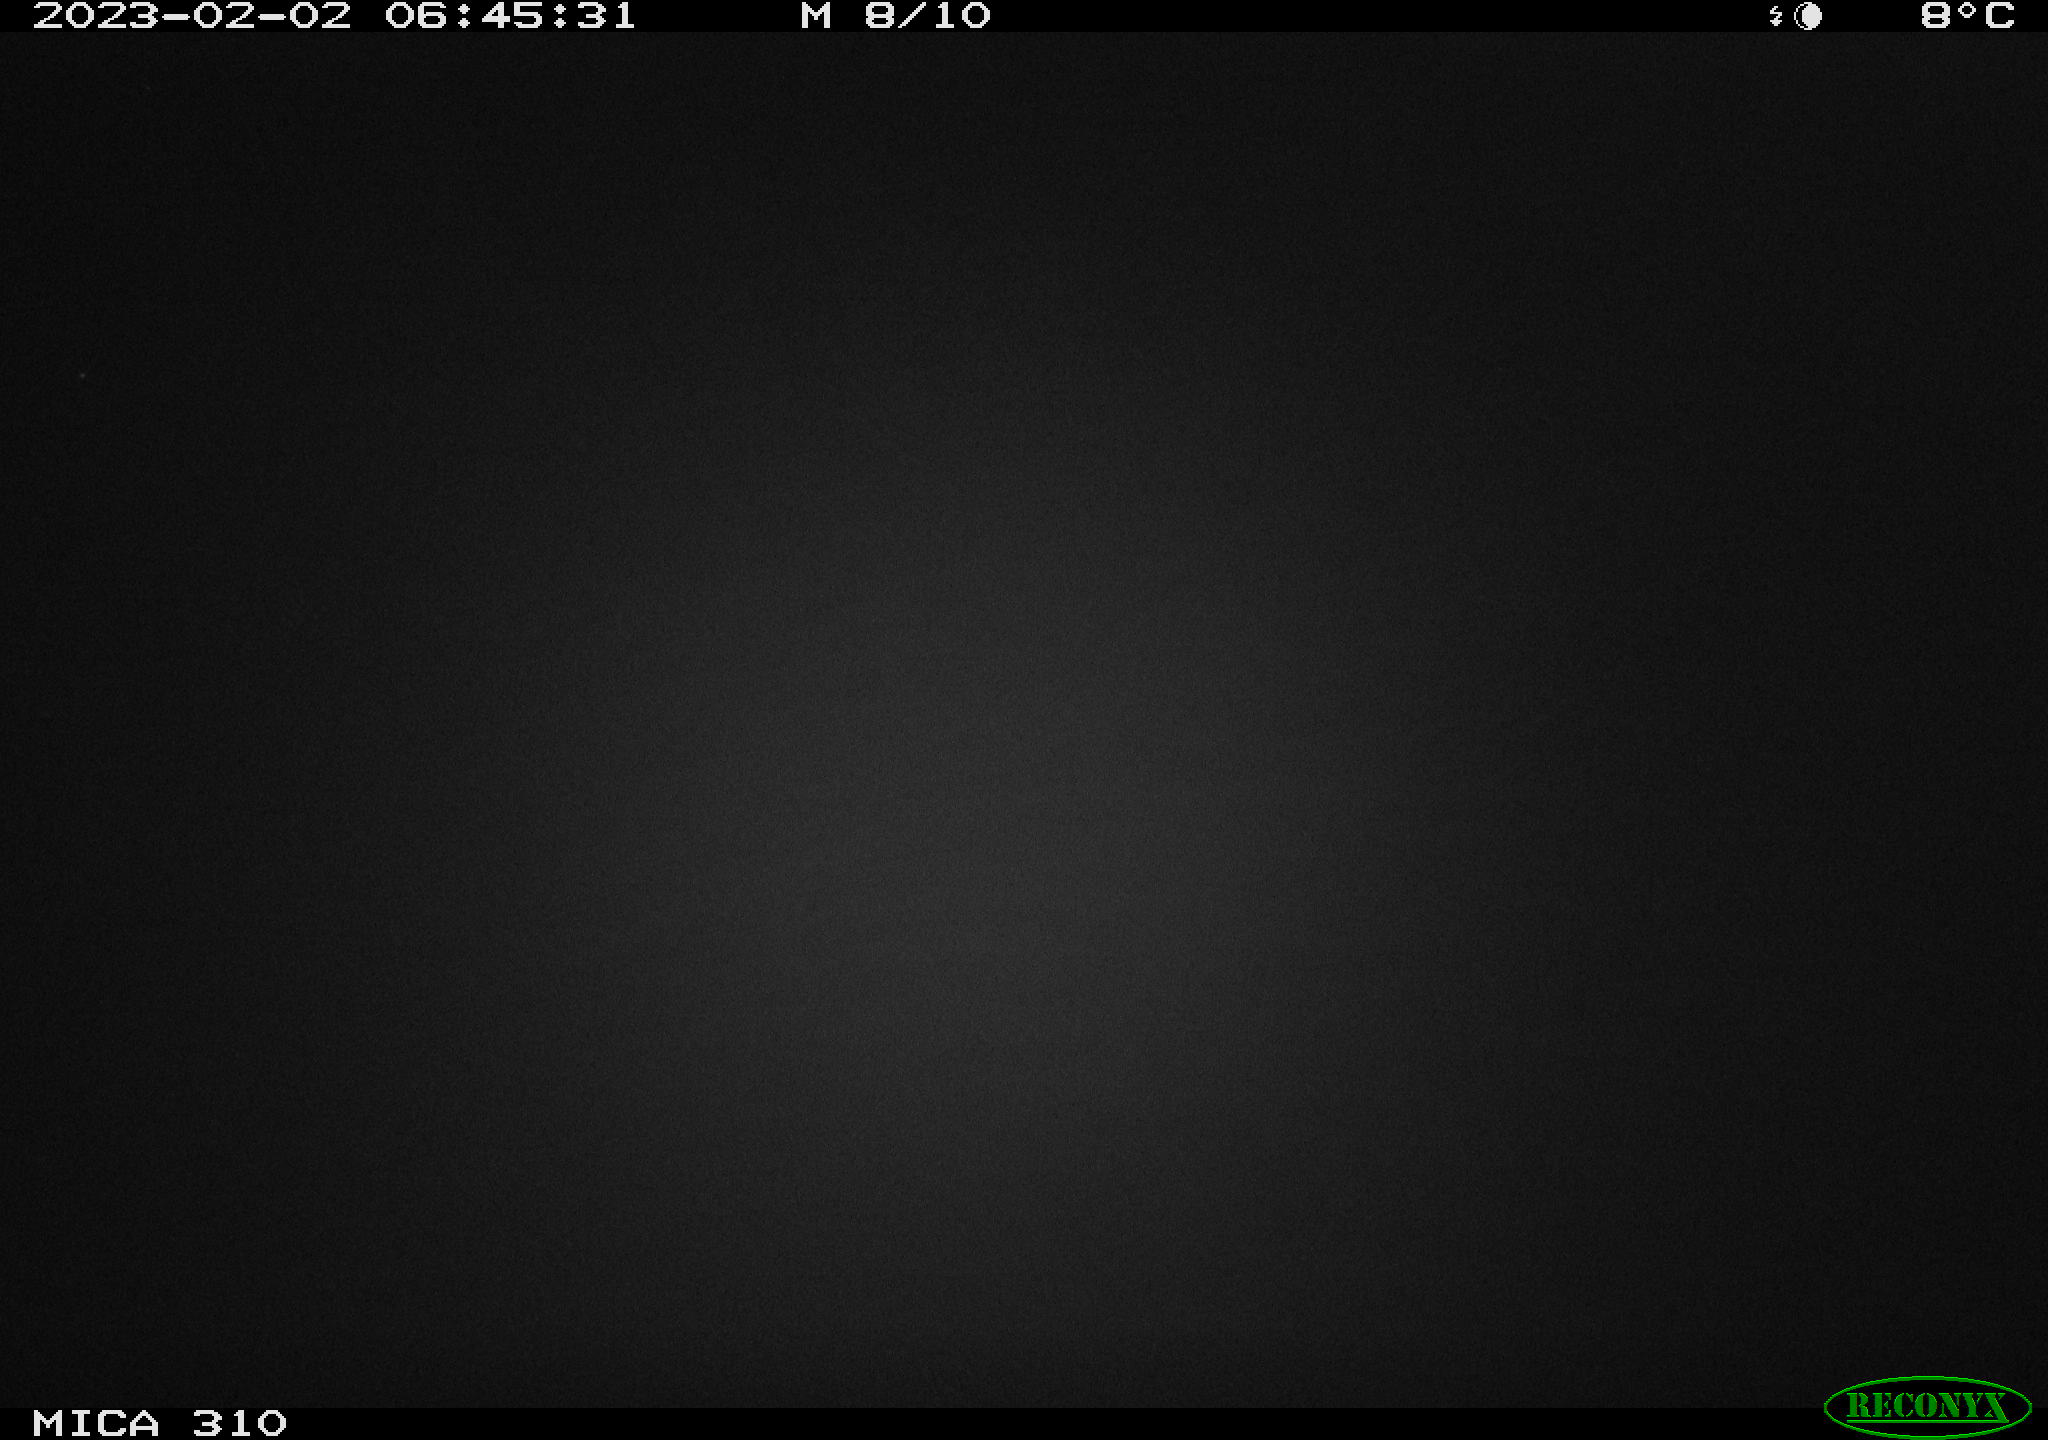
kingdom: Animalia
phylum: Chordata
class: Aves
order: Anseriformes
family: Anatidae
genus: Anas
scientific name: Anas
